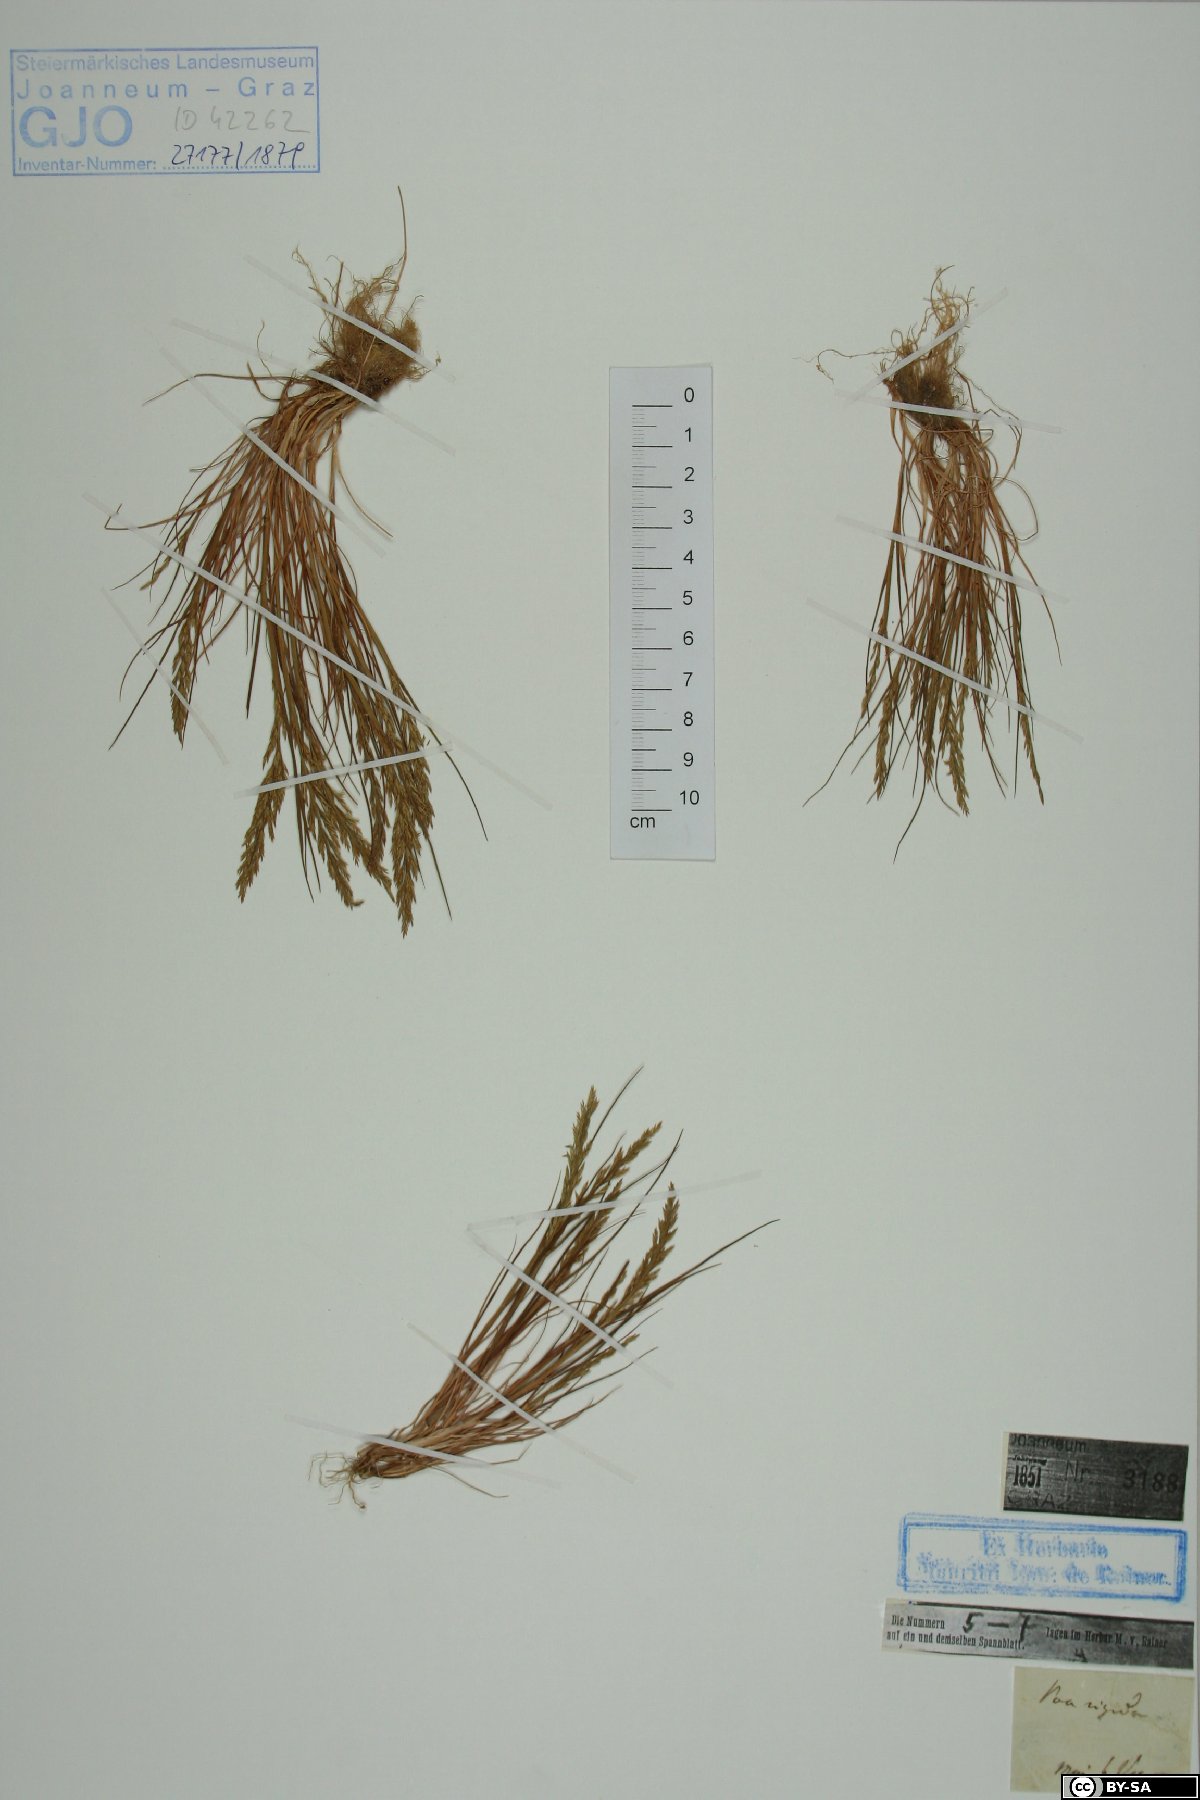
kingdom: Plantae
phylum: Tracheophyta
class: Liliopsida
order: Poales
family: Poaceae
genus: Catapodium
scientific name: Catapodium rigidum
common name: Fern-grass
